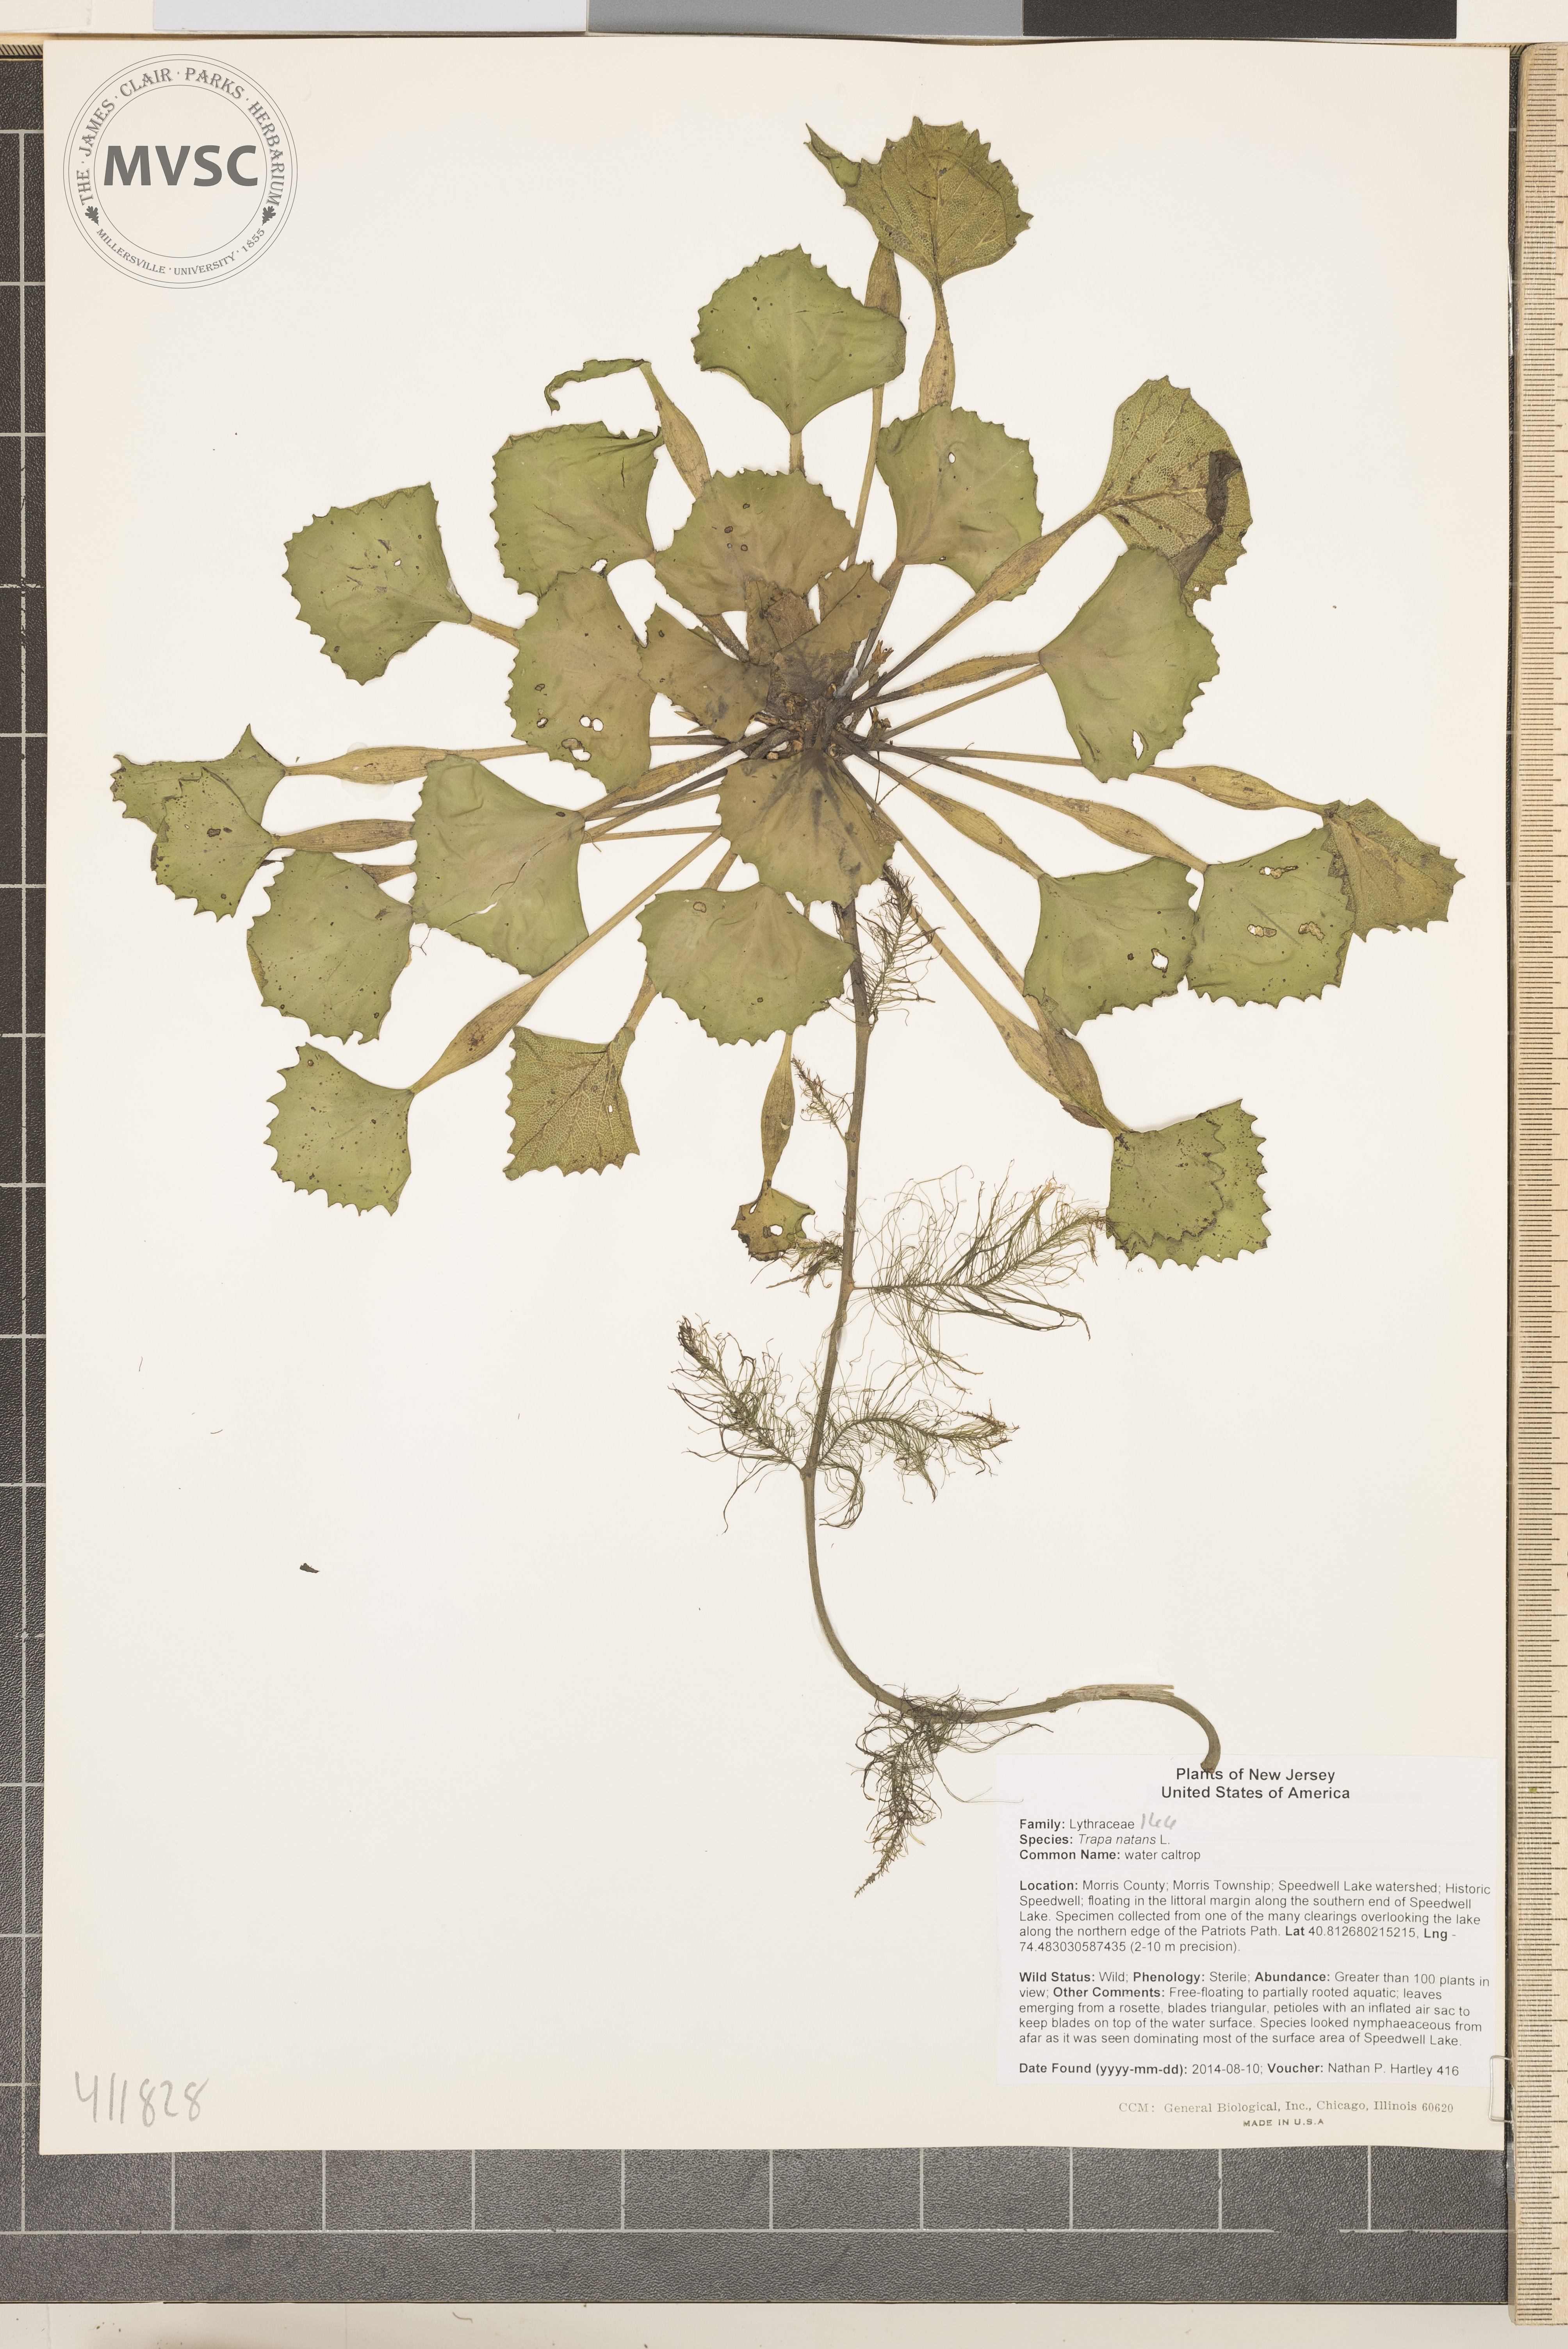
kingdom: Plantae
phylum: Tracheophyta
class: Magnoliopsida
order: Myrtales
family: Lythraceae
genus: Trapa
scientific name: Trapa natans
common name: water caltrop
